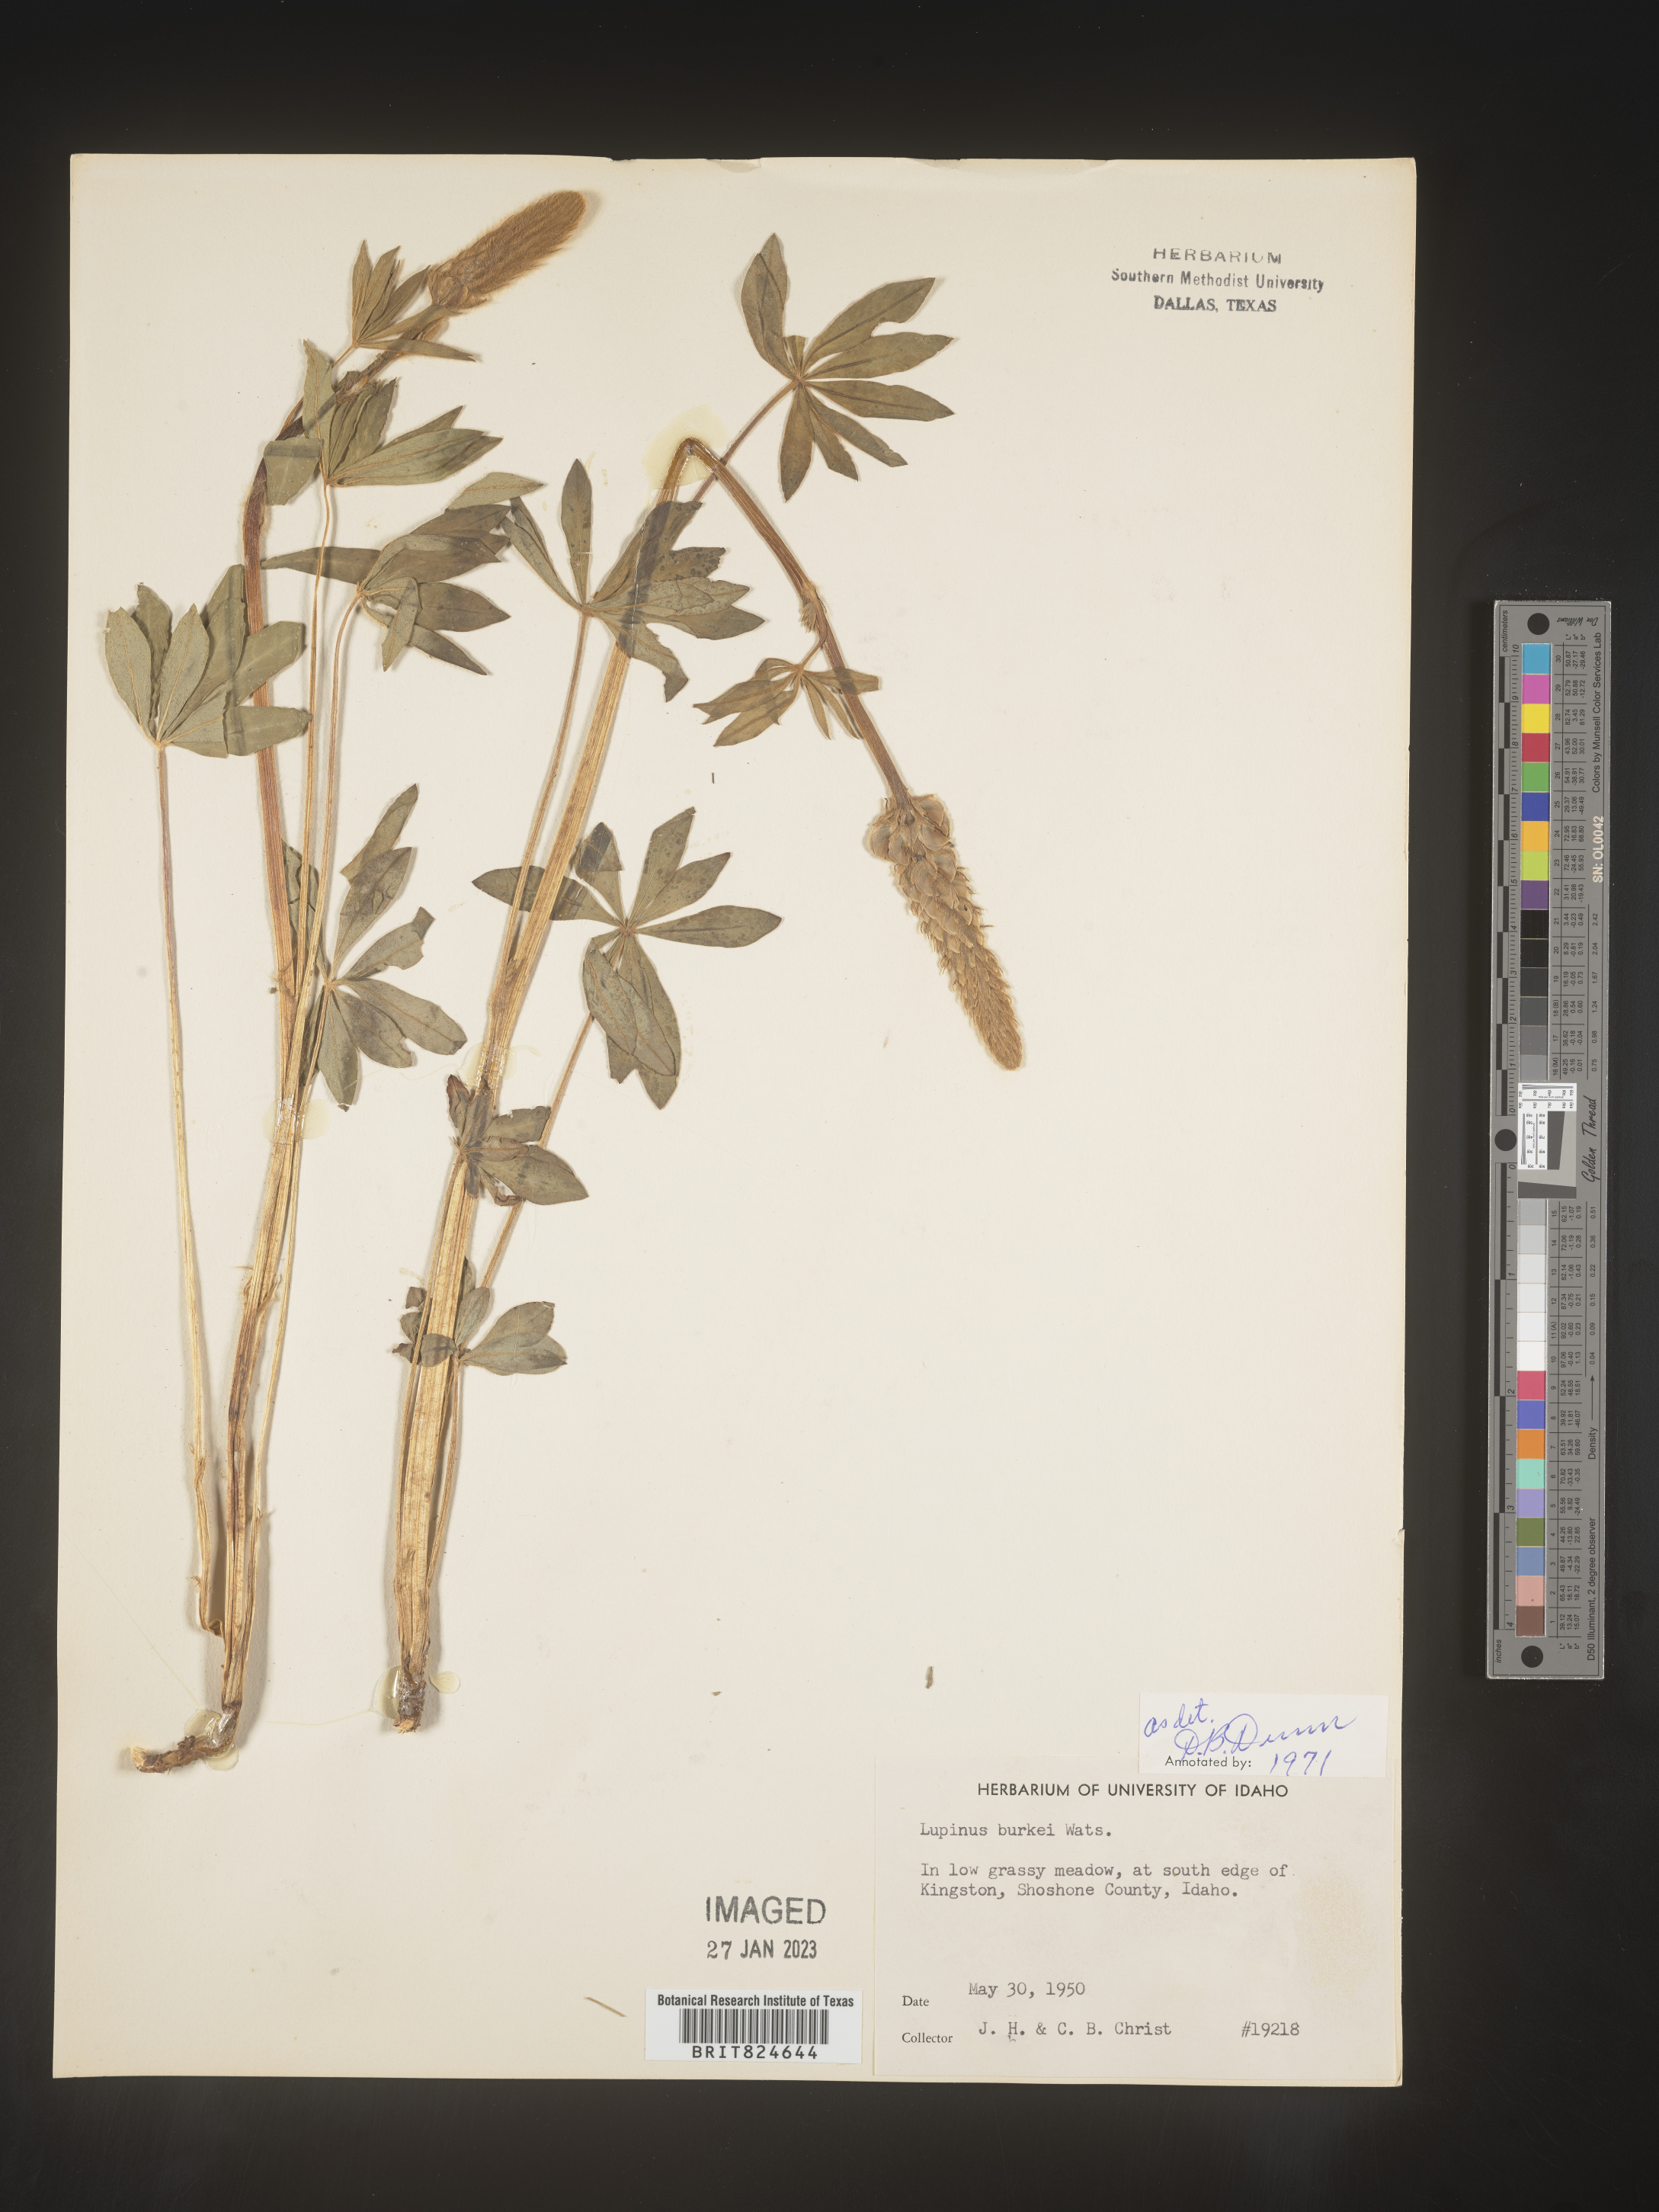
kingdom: Plantae
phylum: Tracheophyta
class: Magnoliopsida
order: Fabales
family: Fabaceae
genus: Lupinus
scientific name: Lupinus
